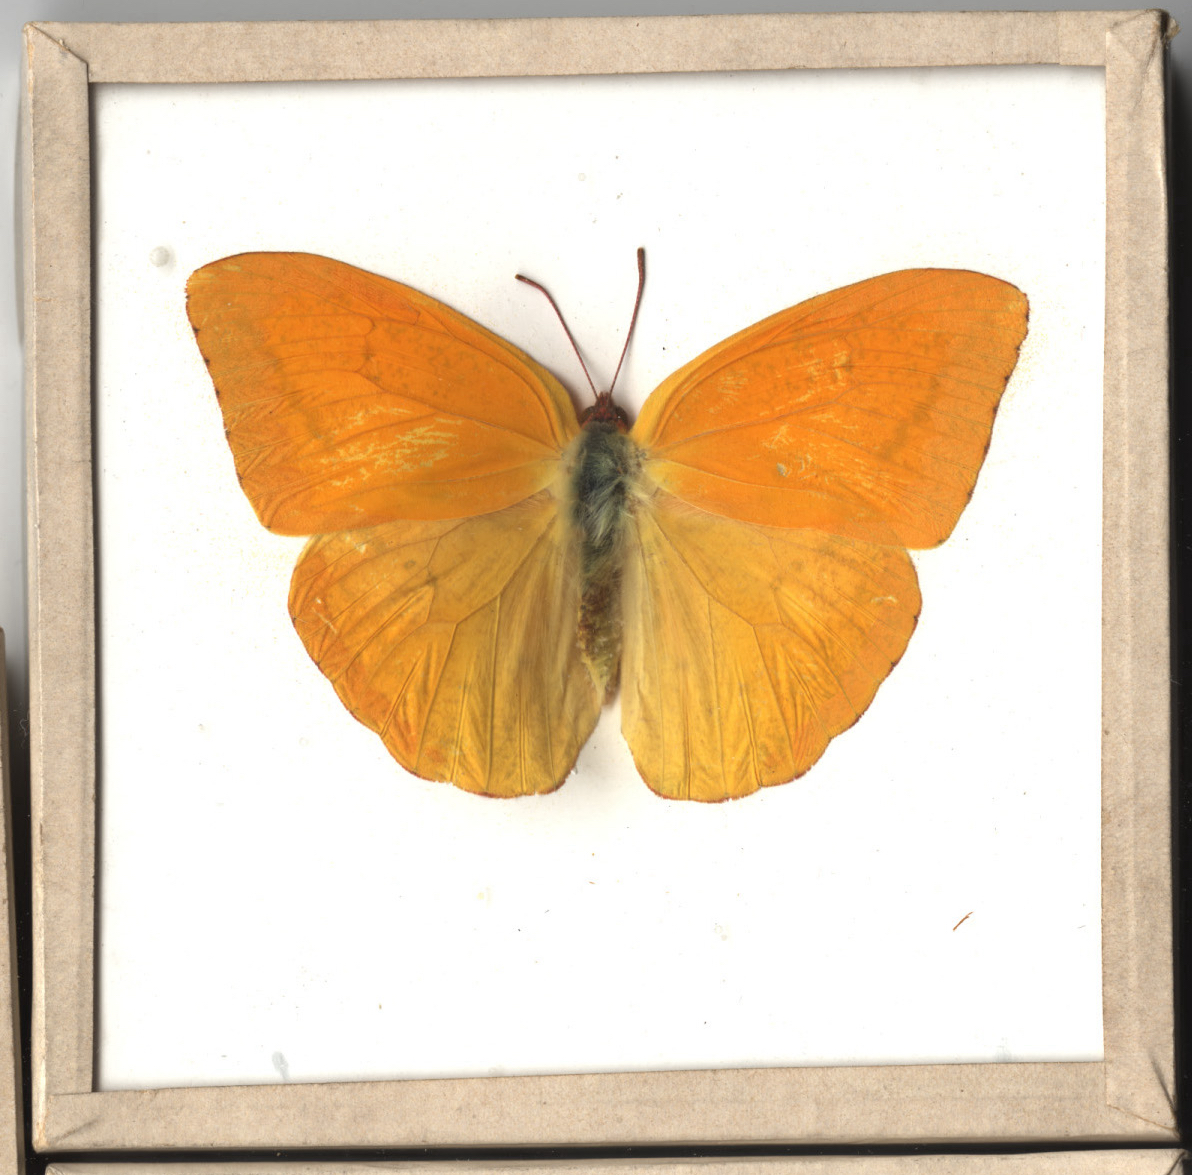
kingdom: Animalia
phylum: Arthropoda
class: Insecta
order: Lepidoptera
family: Pieridae
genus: Phoebis
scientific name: Phoebis agarithe
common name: Large Orange Sulphur
